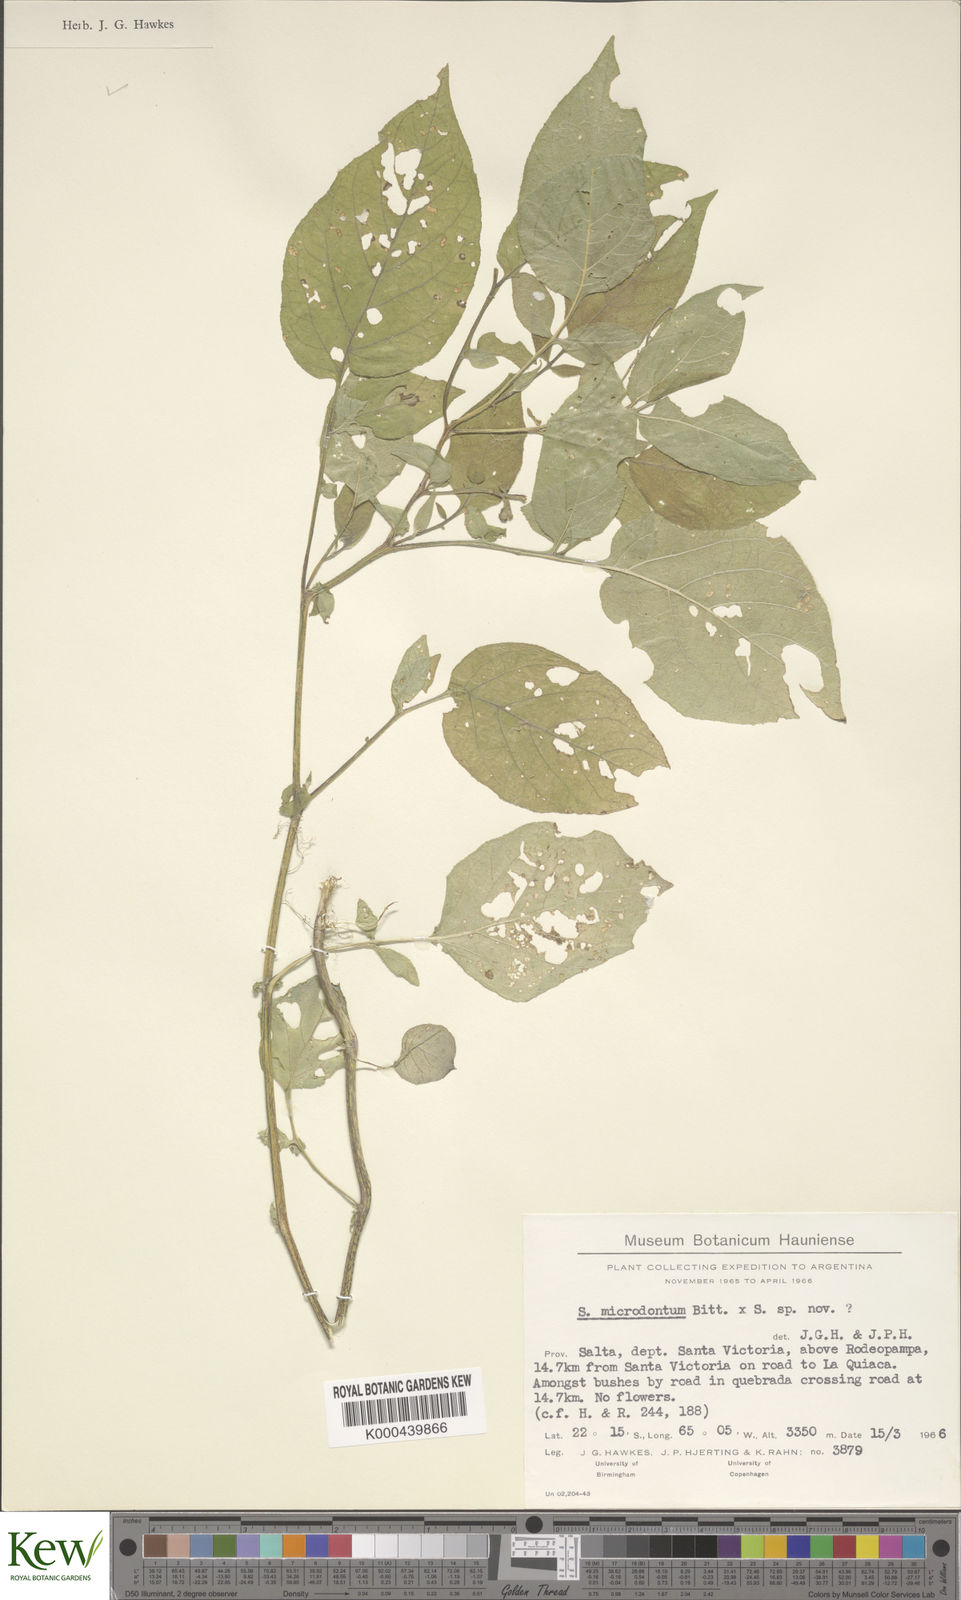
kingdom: Plantae
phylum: Tracheophyta
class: Magnoliopsida
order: Solanales
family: Solanaceae
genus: Solanum
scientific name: Solanum microdontum
